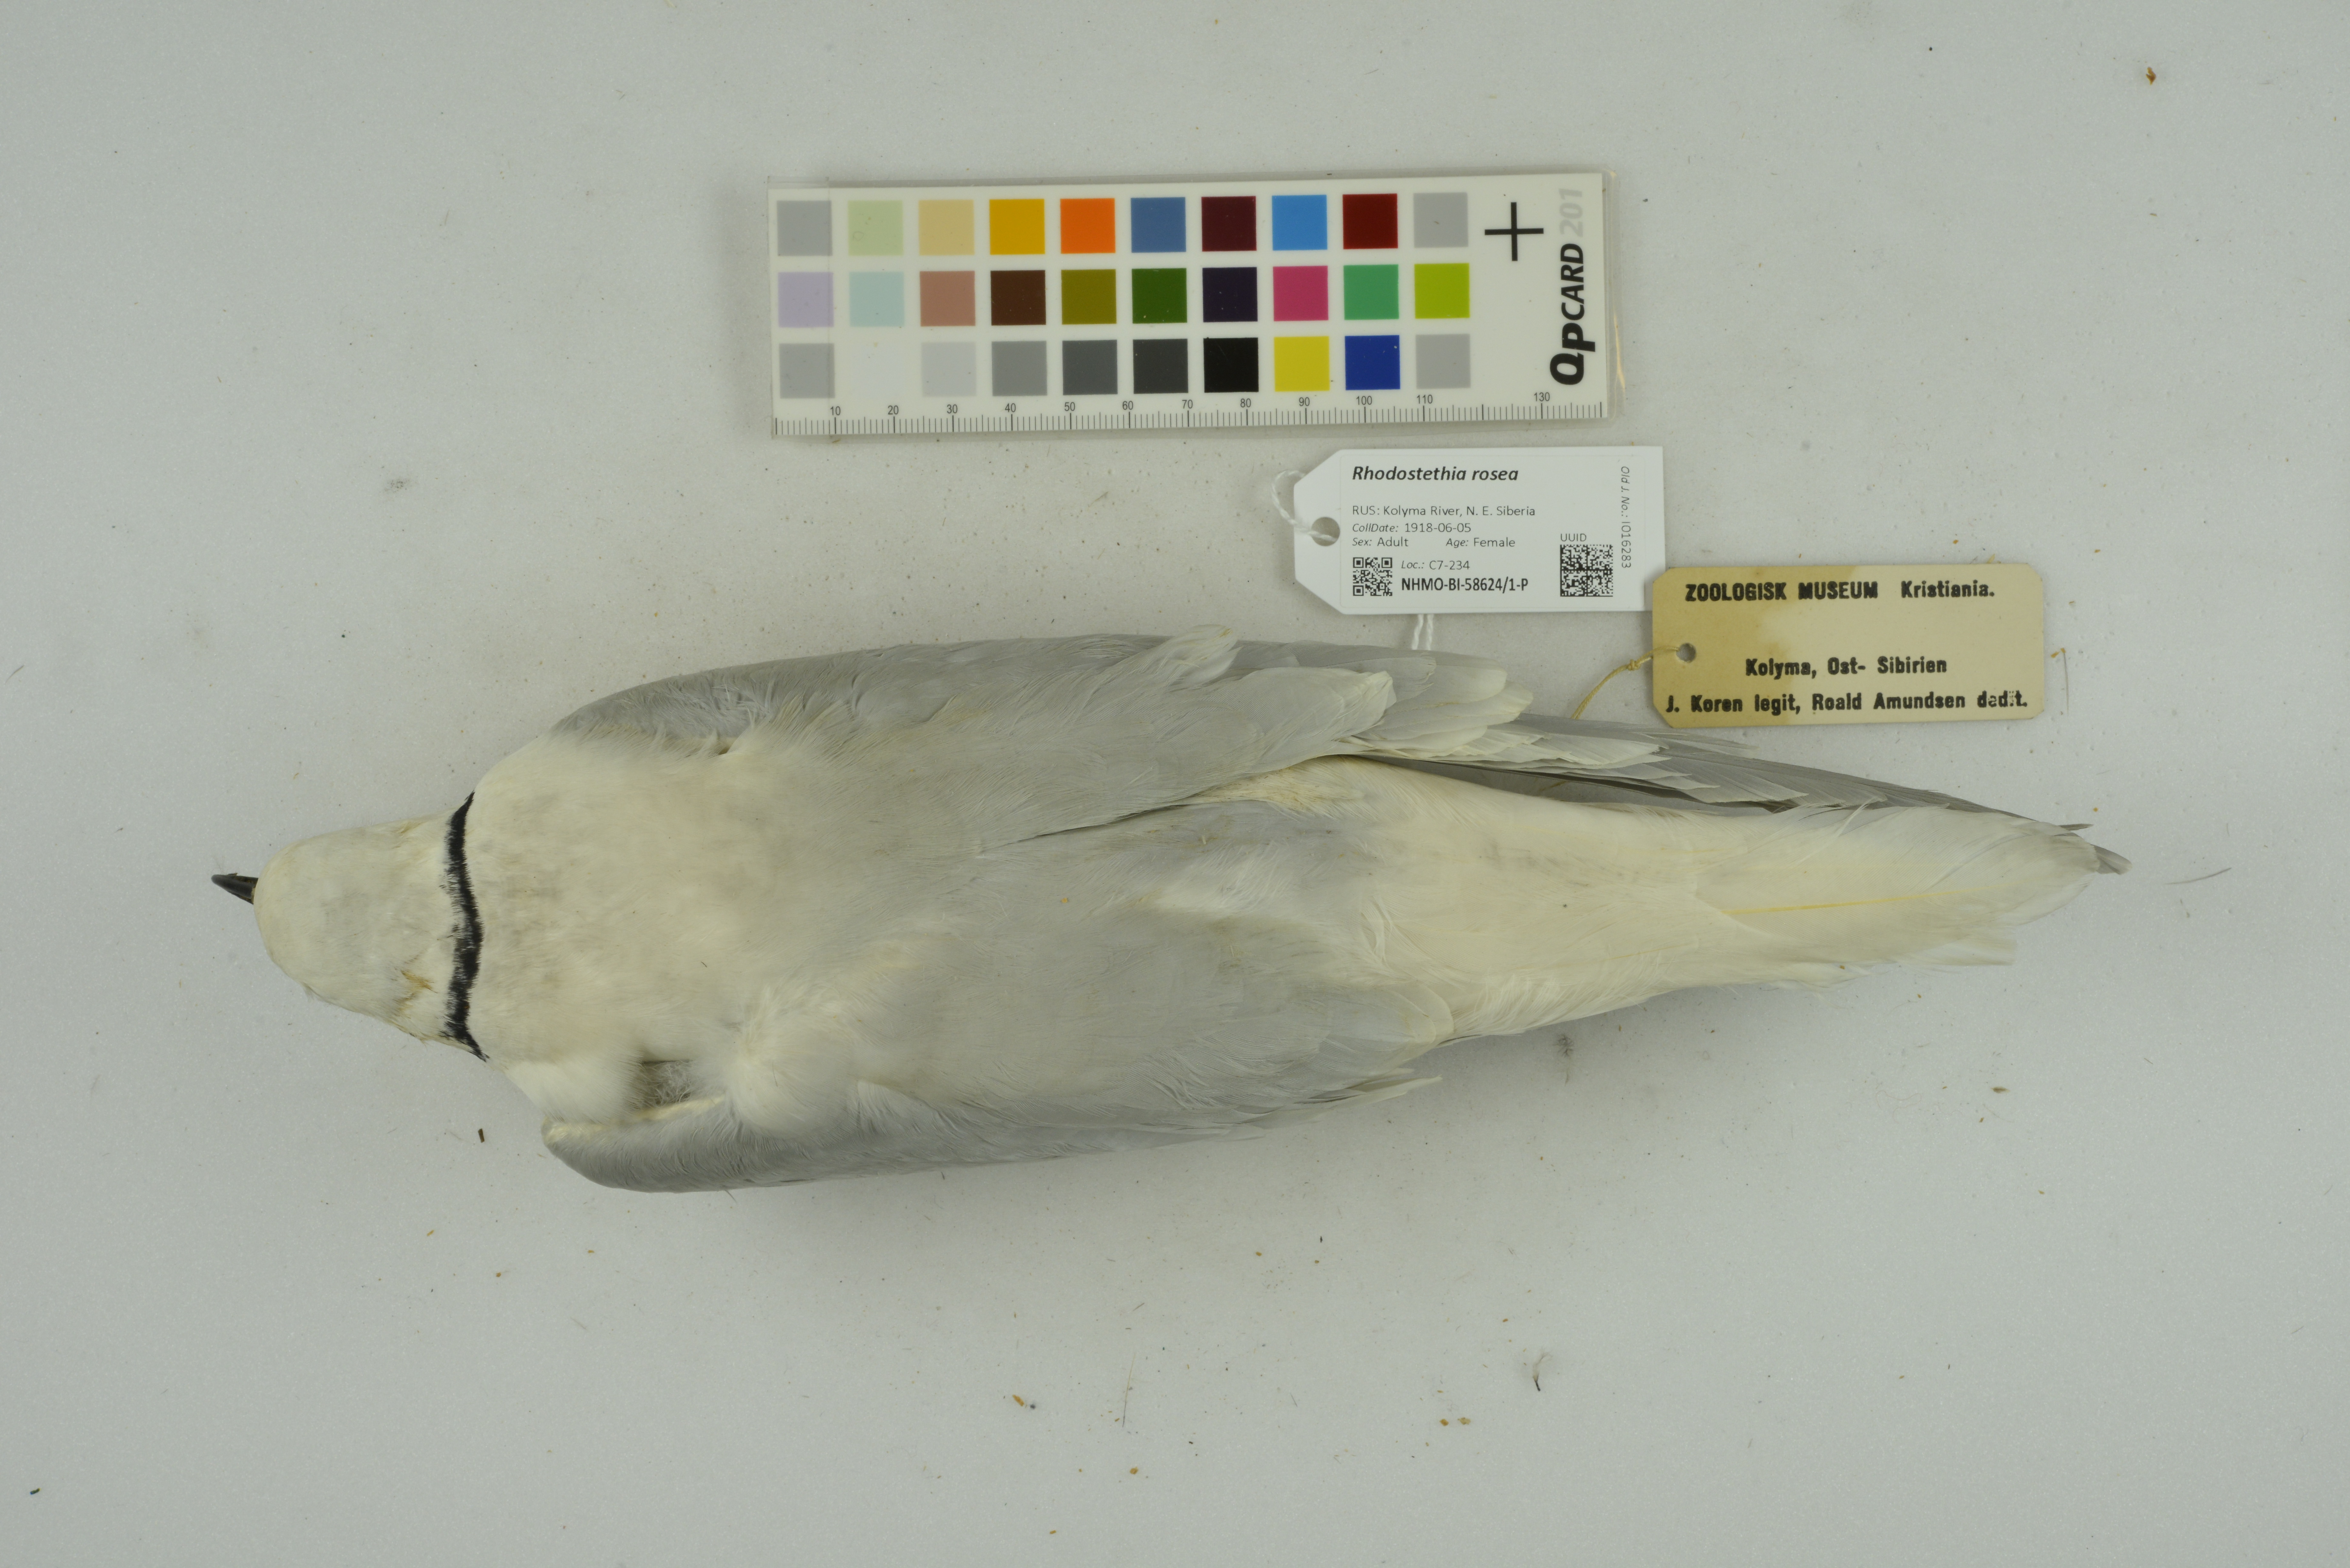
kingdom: Animalia
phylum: Chordata
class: Aves
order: Charadriiformes
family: Laridae
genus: Rhodostethia
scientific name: Rhodostethia rosea
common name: Ross's gull
